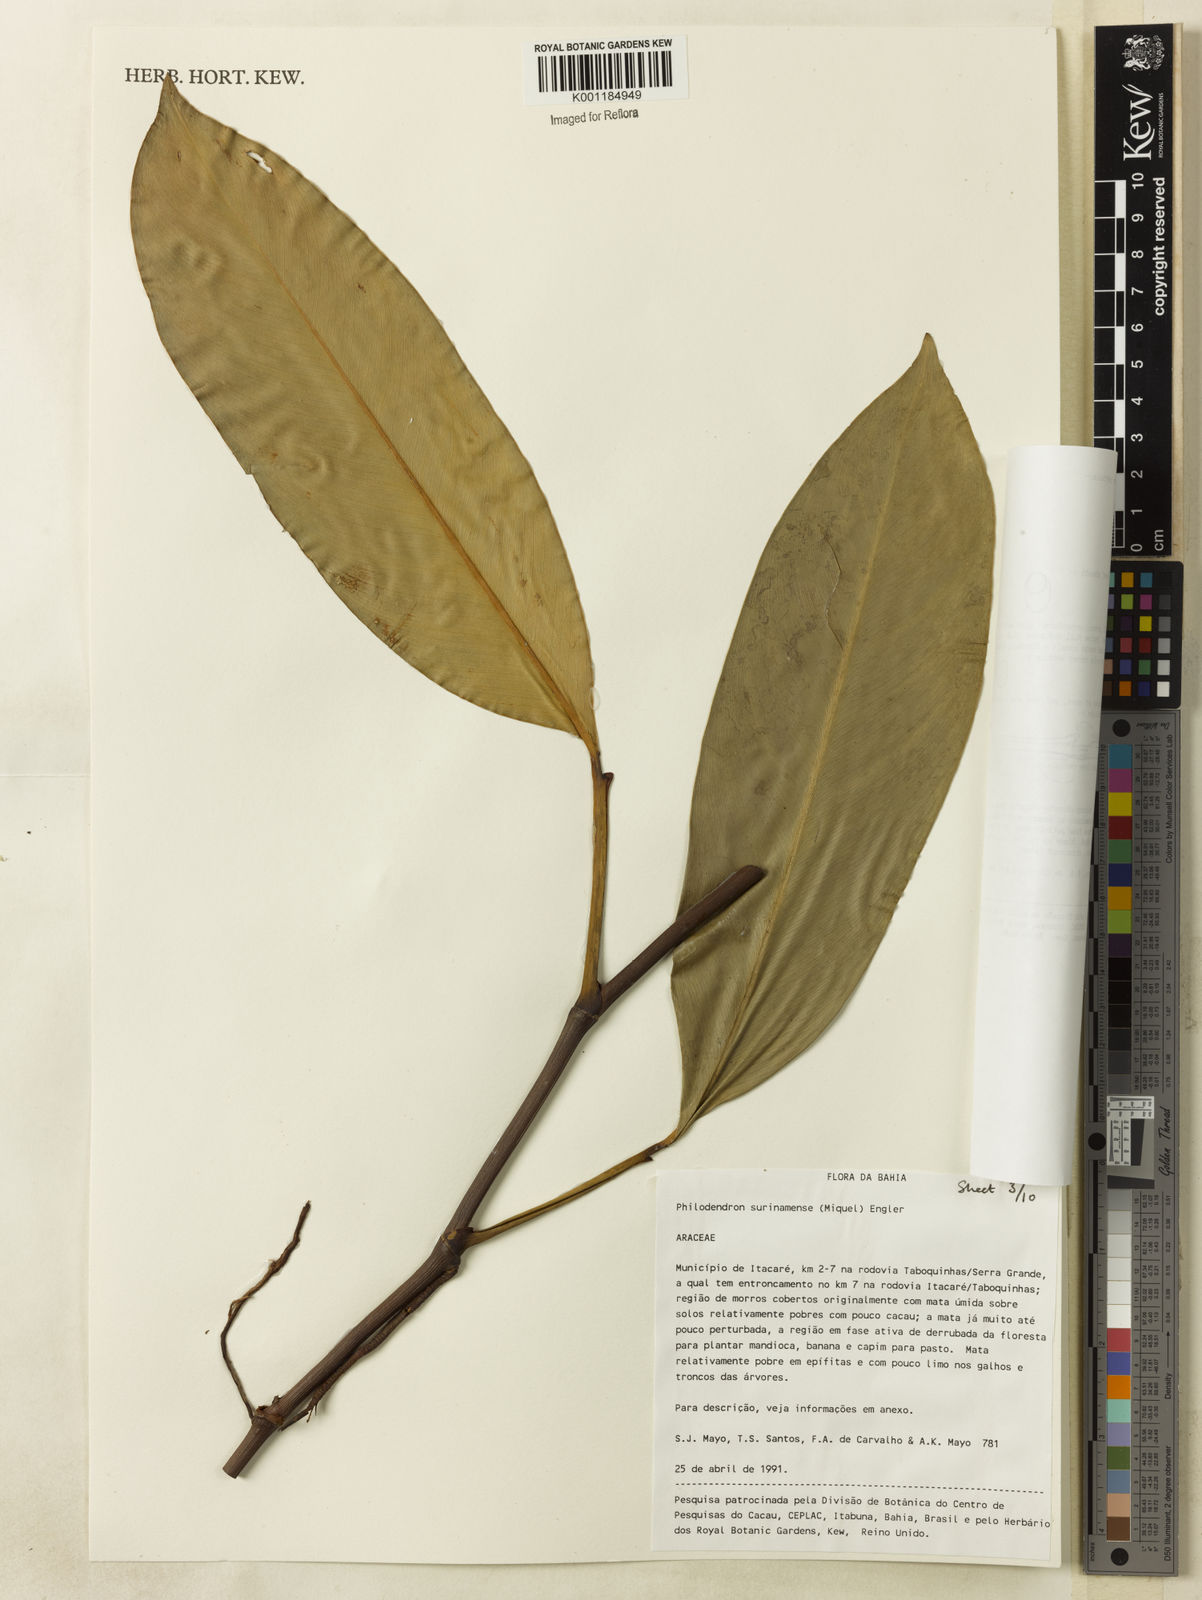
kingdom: Plantae
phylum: Tracheophyta
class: Liliopsida
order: Alismatales
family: Araceae
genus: Philodendron
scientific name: Philodendron surinamense
